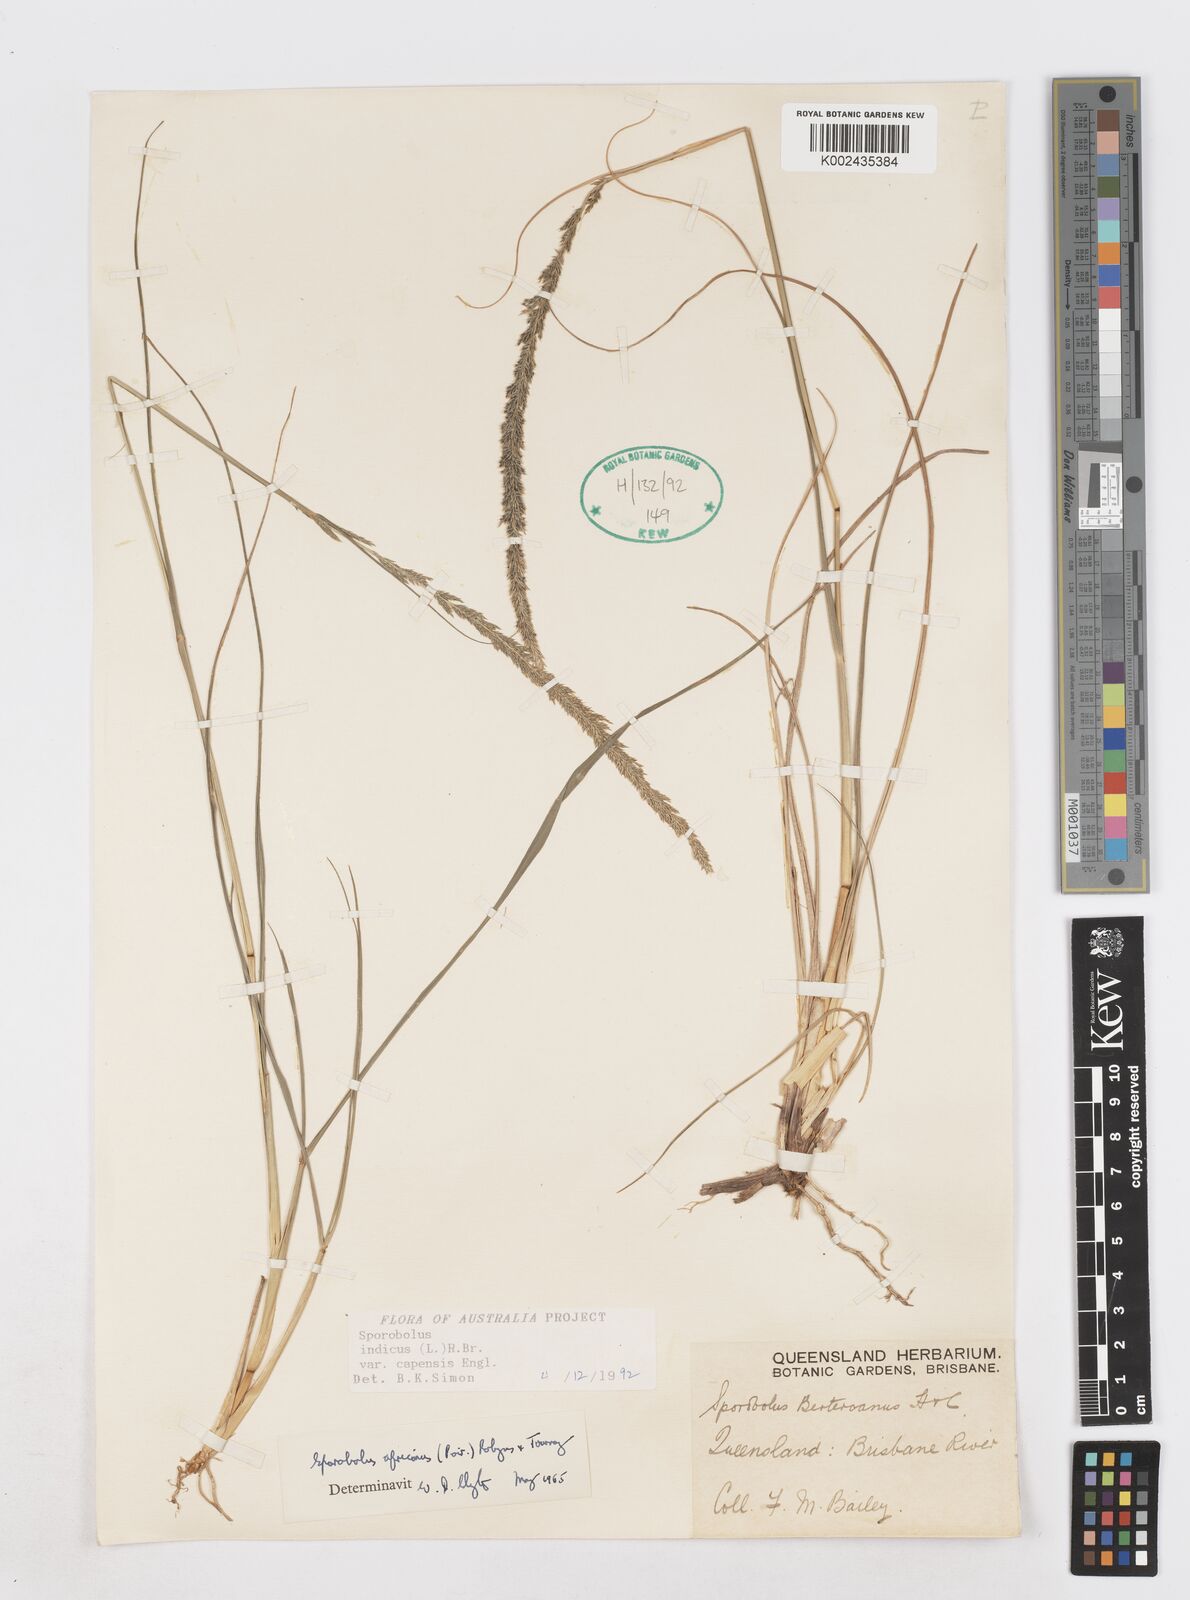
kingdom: Plantae
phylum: Tracheophyta
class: Liliopsida
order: Poales
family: Poaceae
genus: Sporobolus
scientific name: Sporobolus africanus
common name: African dropseed
